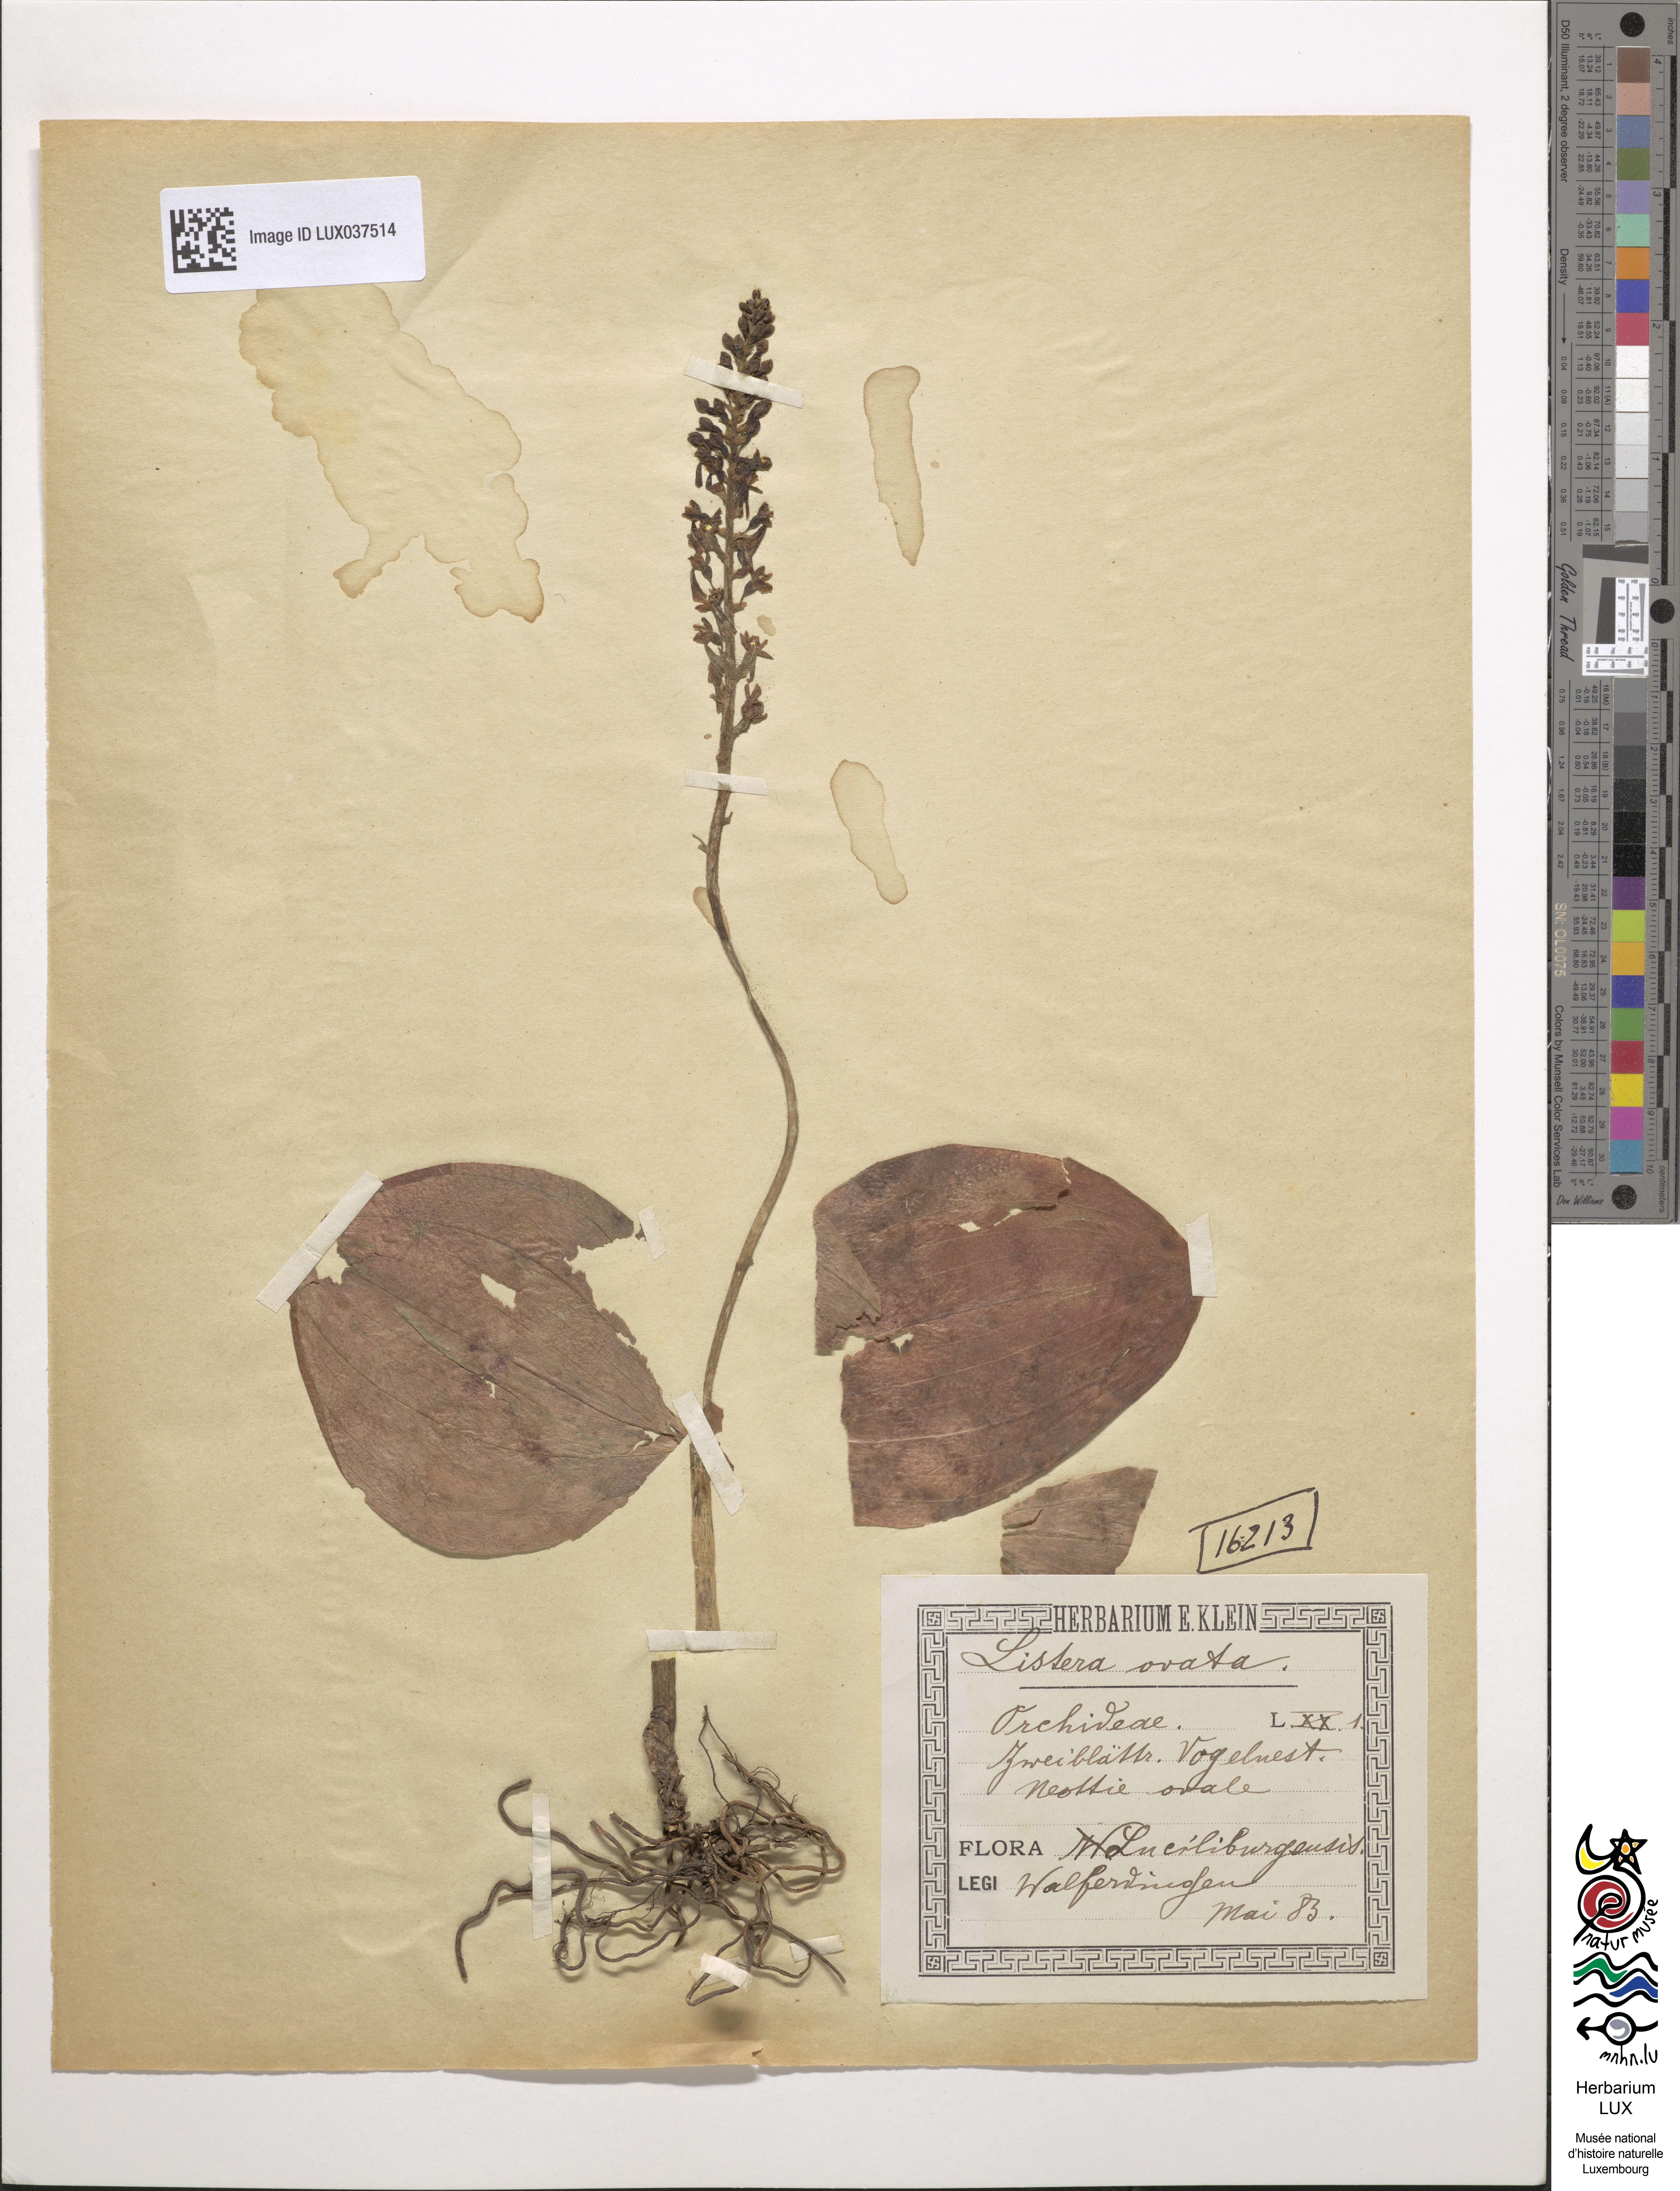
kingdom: Plantae
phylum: Tracheophyta
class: Liliopsida
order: Asparagales
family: Orchidaceae
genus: Neottia
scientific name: Neottia ovata
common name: Common twayblade
